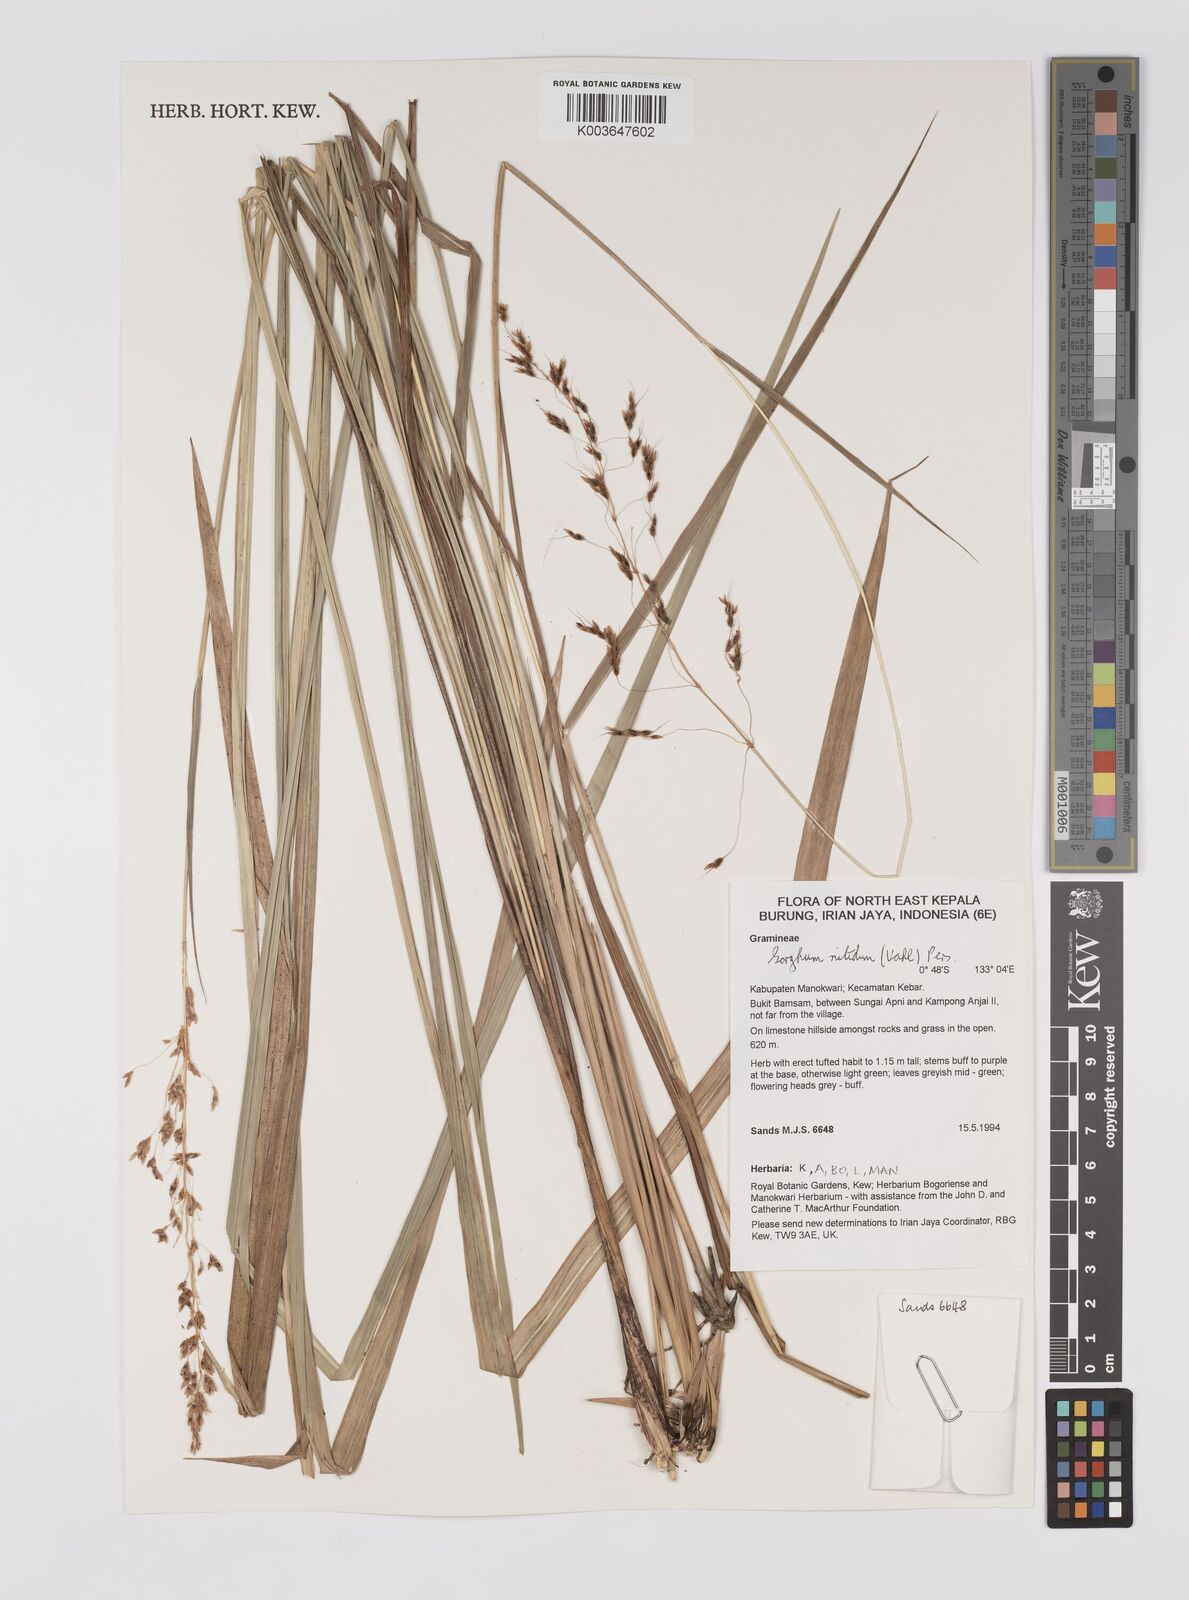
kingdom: Plantae
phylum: Tracheophyta
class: Liliopsida
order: Poales
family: Poaceae
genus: Sorghum
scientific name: Sorghum nitidum
